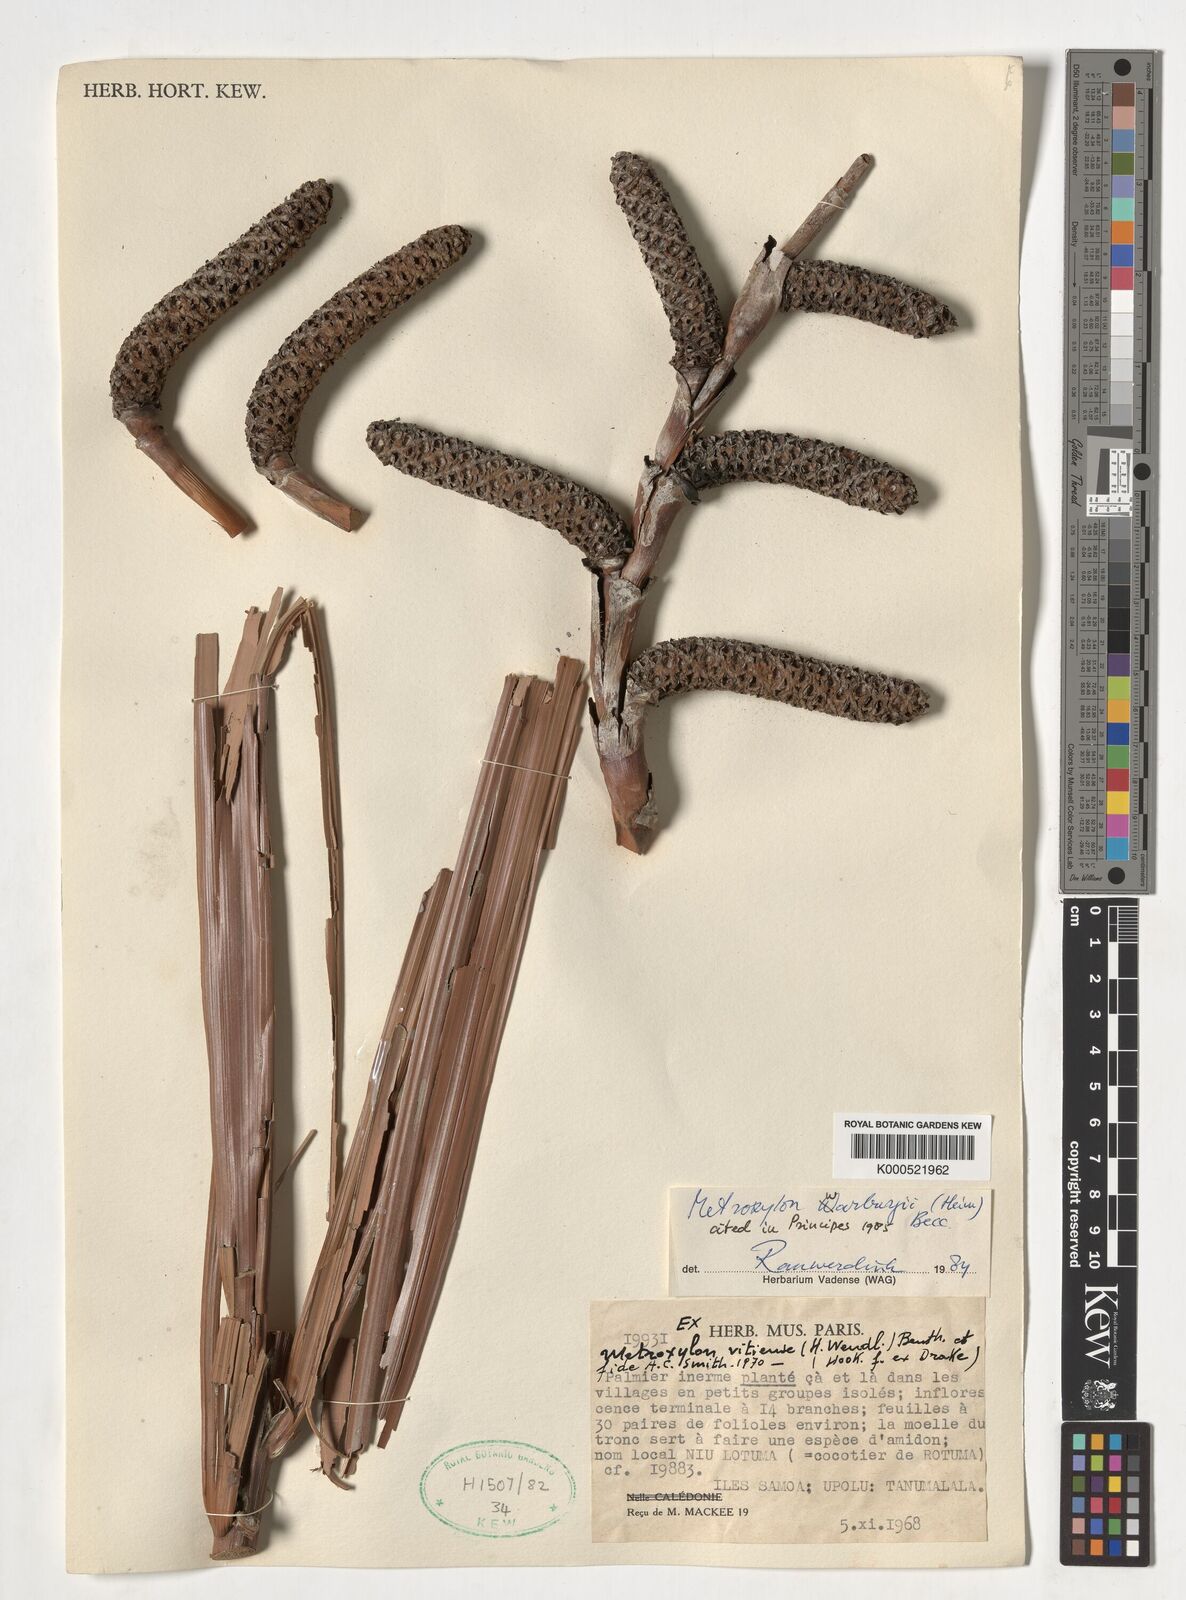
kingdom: Plantae
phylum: Tracheophyta
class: Liliopsida
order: Arecales
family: Arecaceae
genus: Metroxylon
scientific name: Metroxylon warburgii
